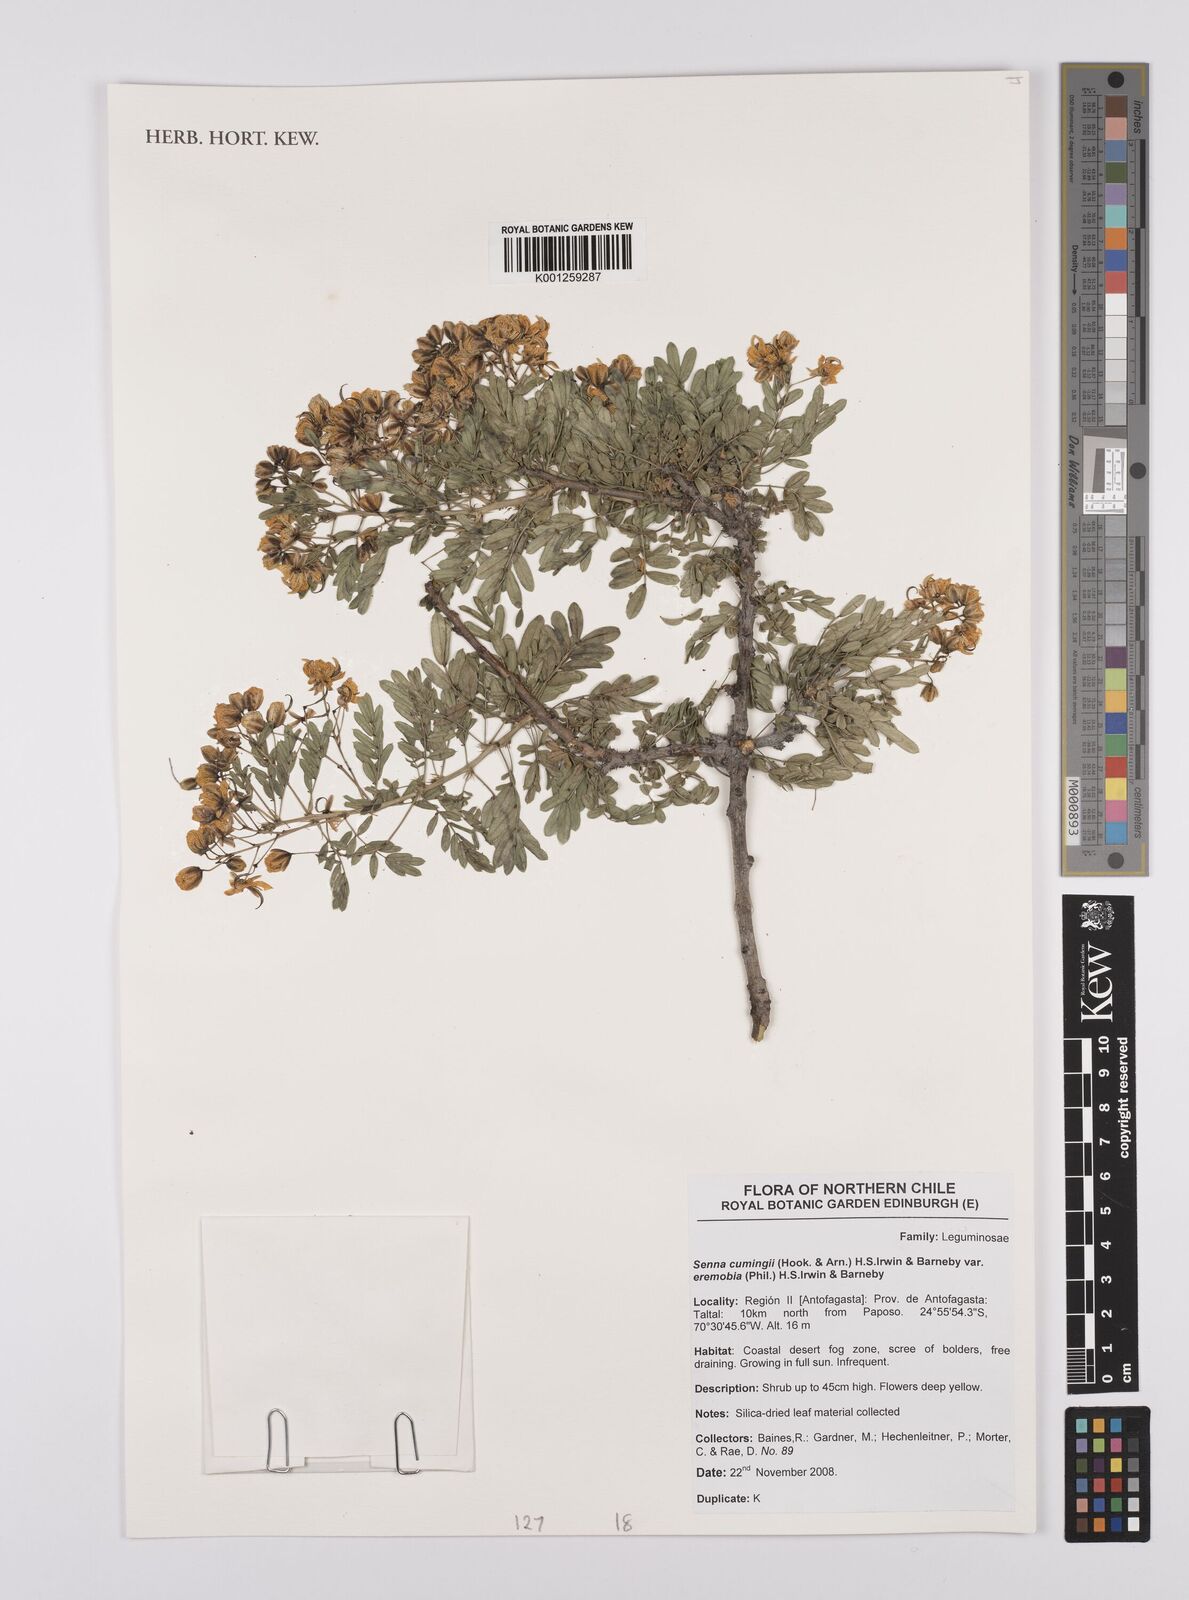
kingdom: Plantae
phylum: Tracheophyta
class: Magnoliopsida
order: Fabales
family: Fabaceae
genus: Senna
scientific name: Senna cumingii
